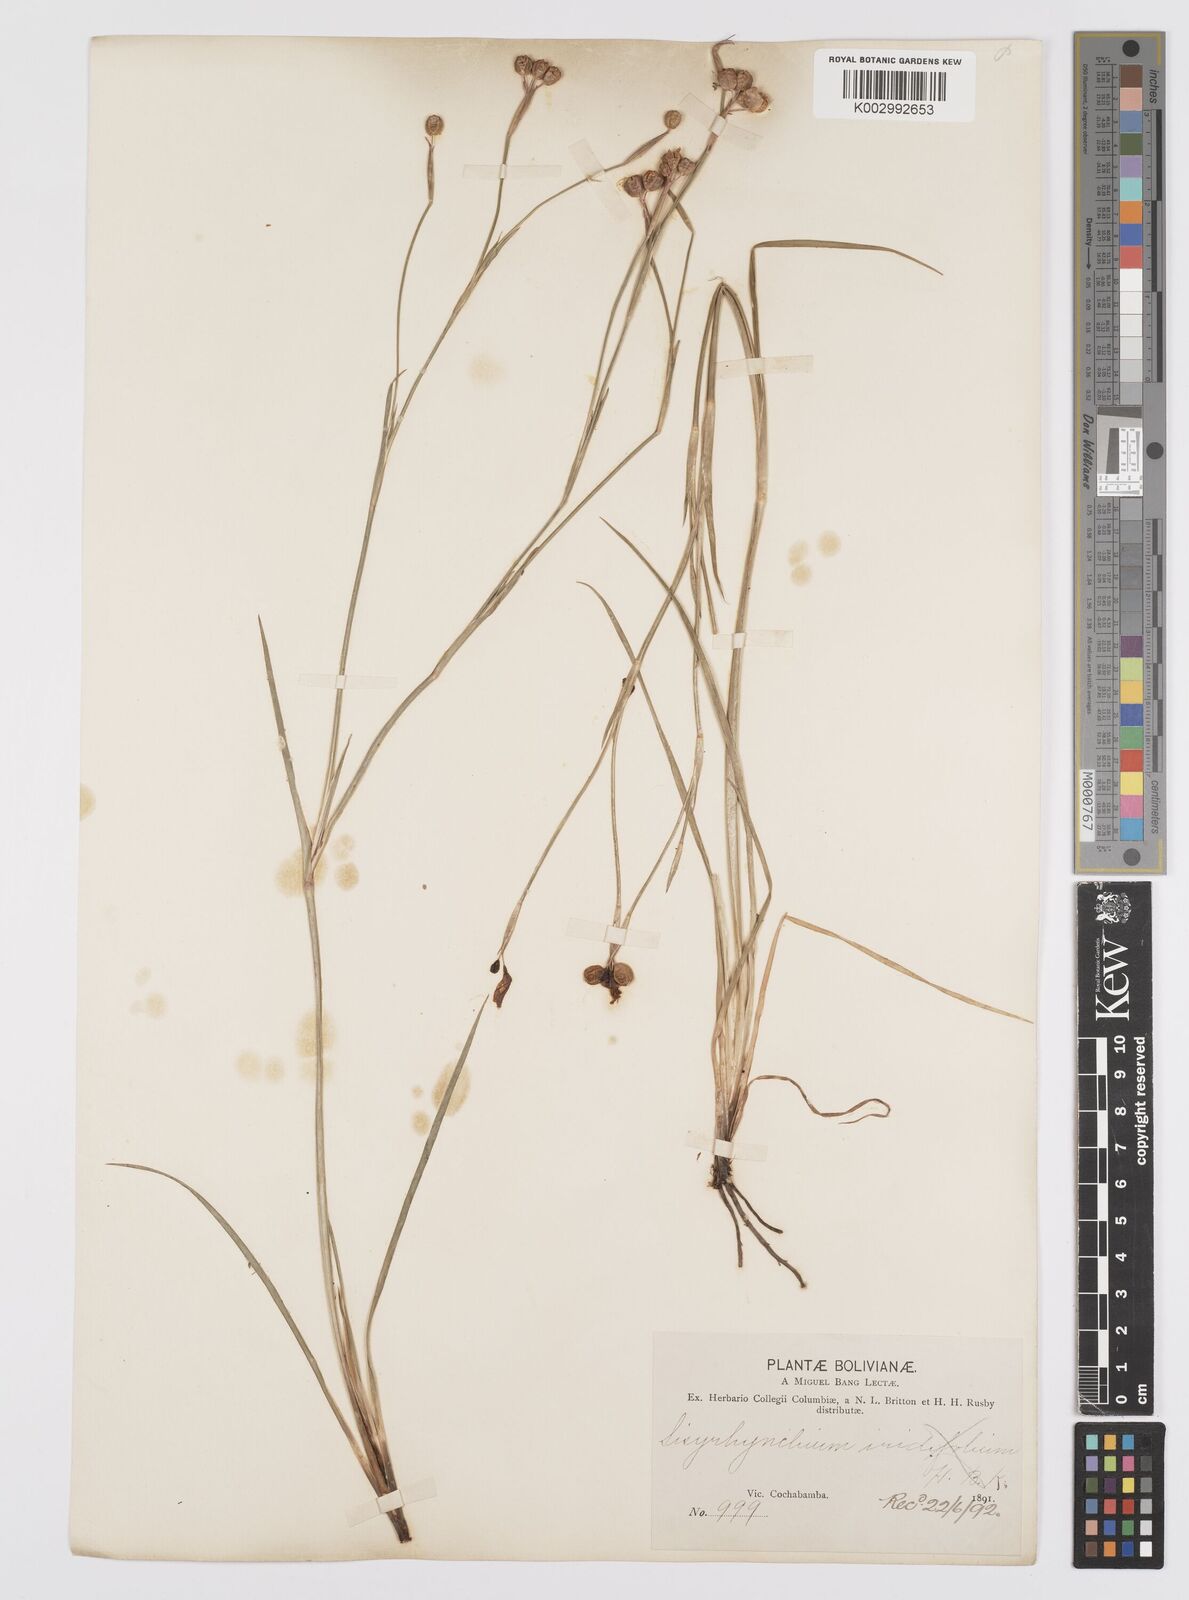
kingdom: Plantae
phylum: Tracheophyta
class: Liliopsida
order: Asparagales
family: Iridaceae
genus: Sisyrinchium
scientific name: Sisyrinchium
